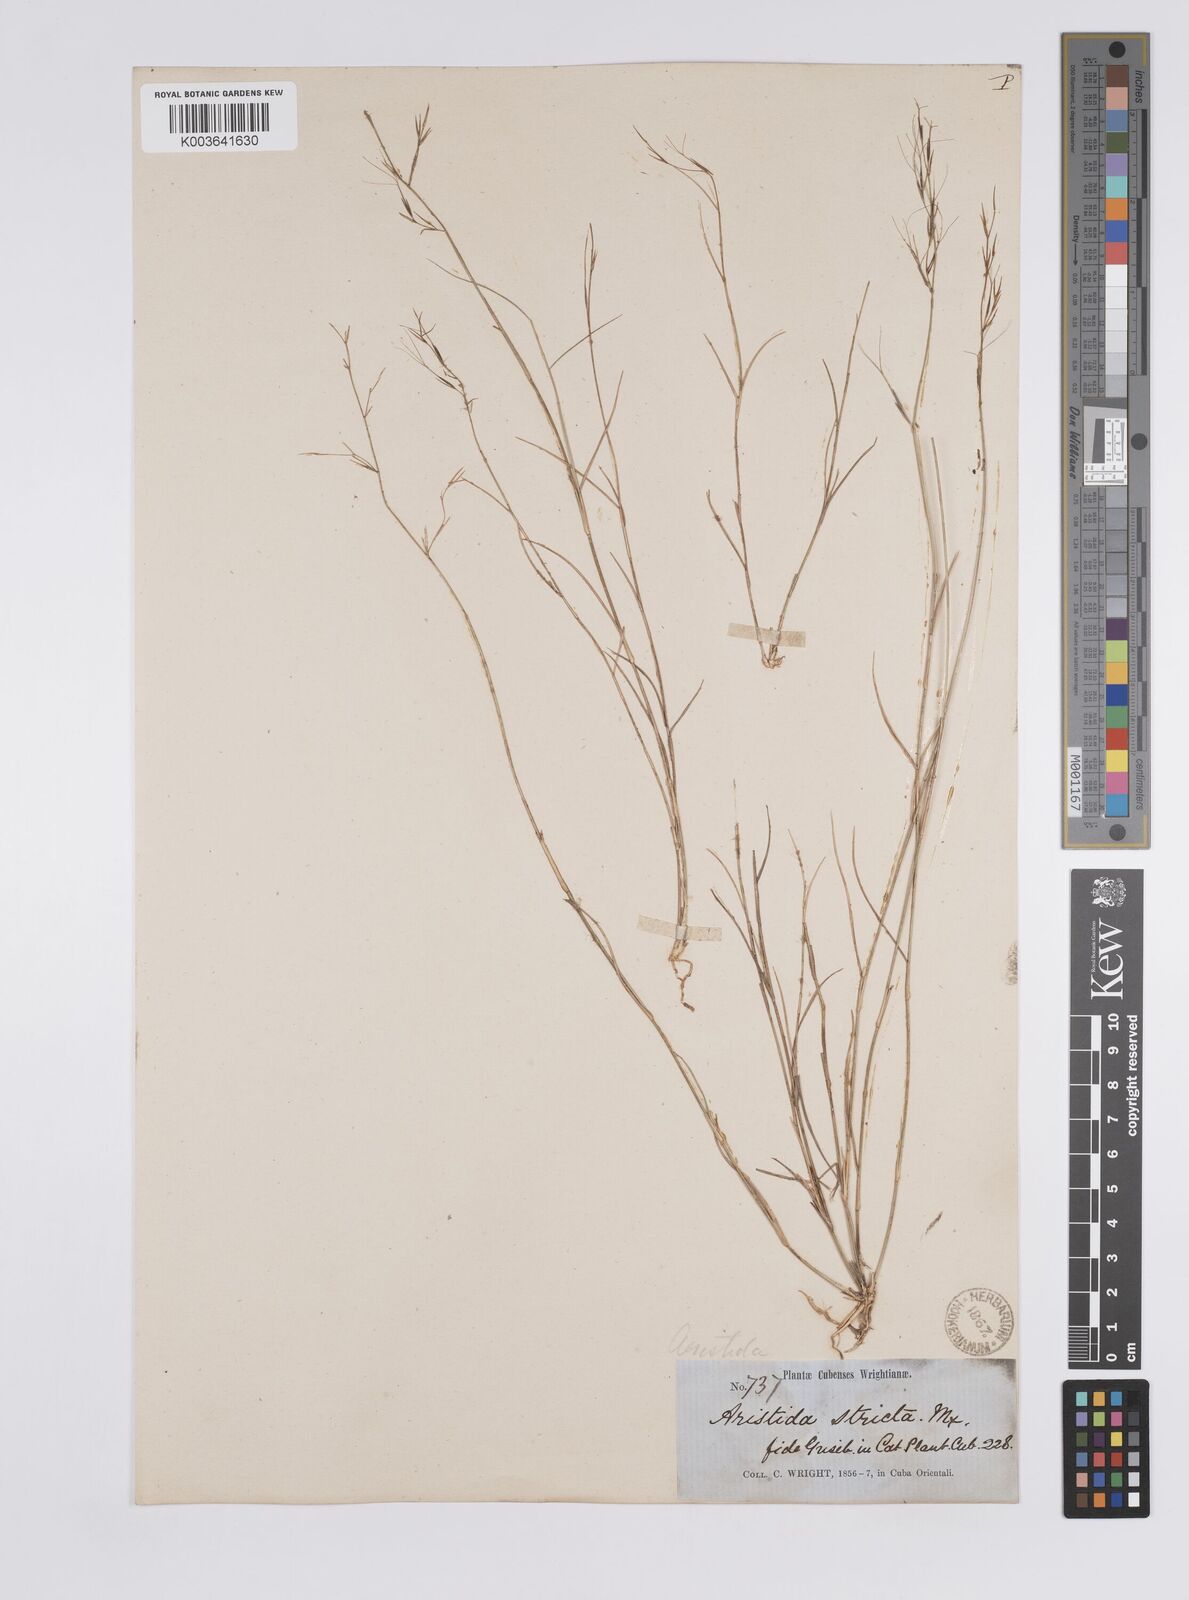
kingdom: Plantae
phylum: Tracheophyta
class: Liliopsida
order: Poales
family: Poaceae
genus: Aristida
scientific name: Aristida neglecta
